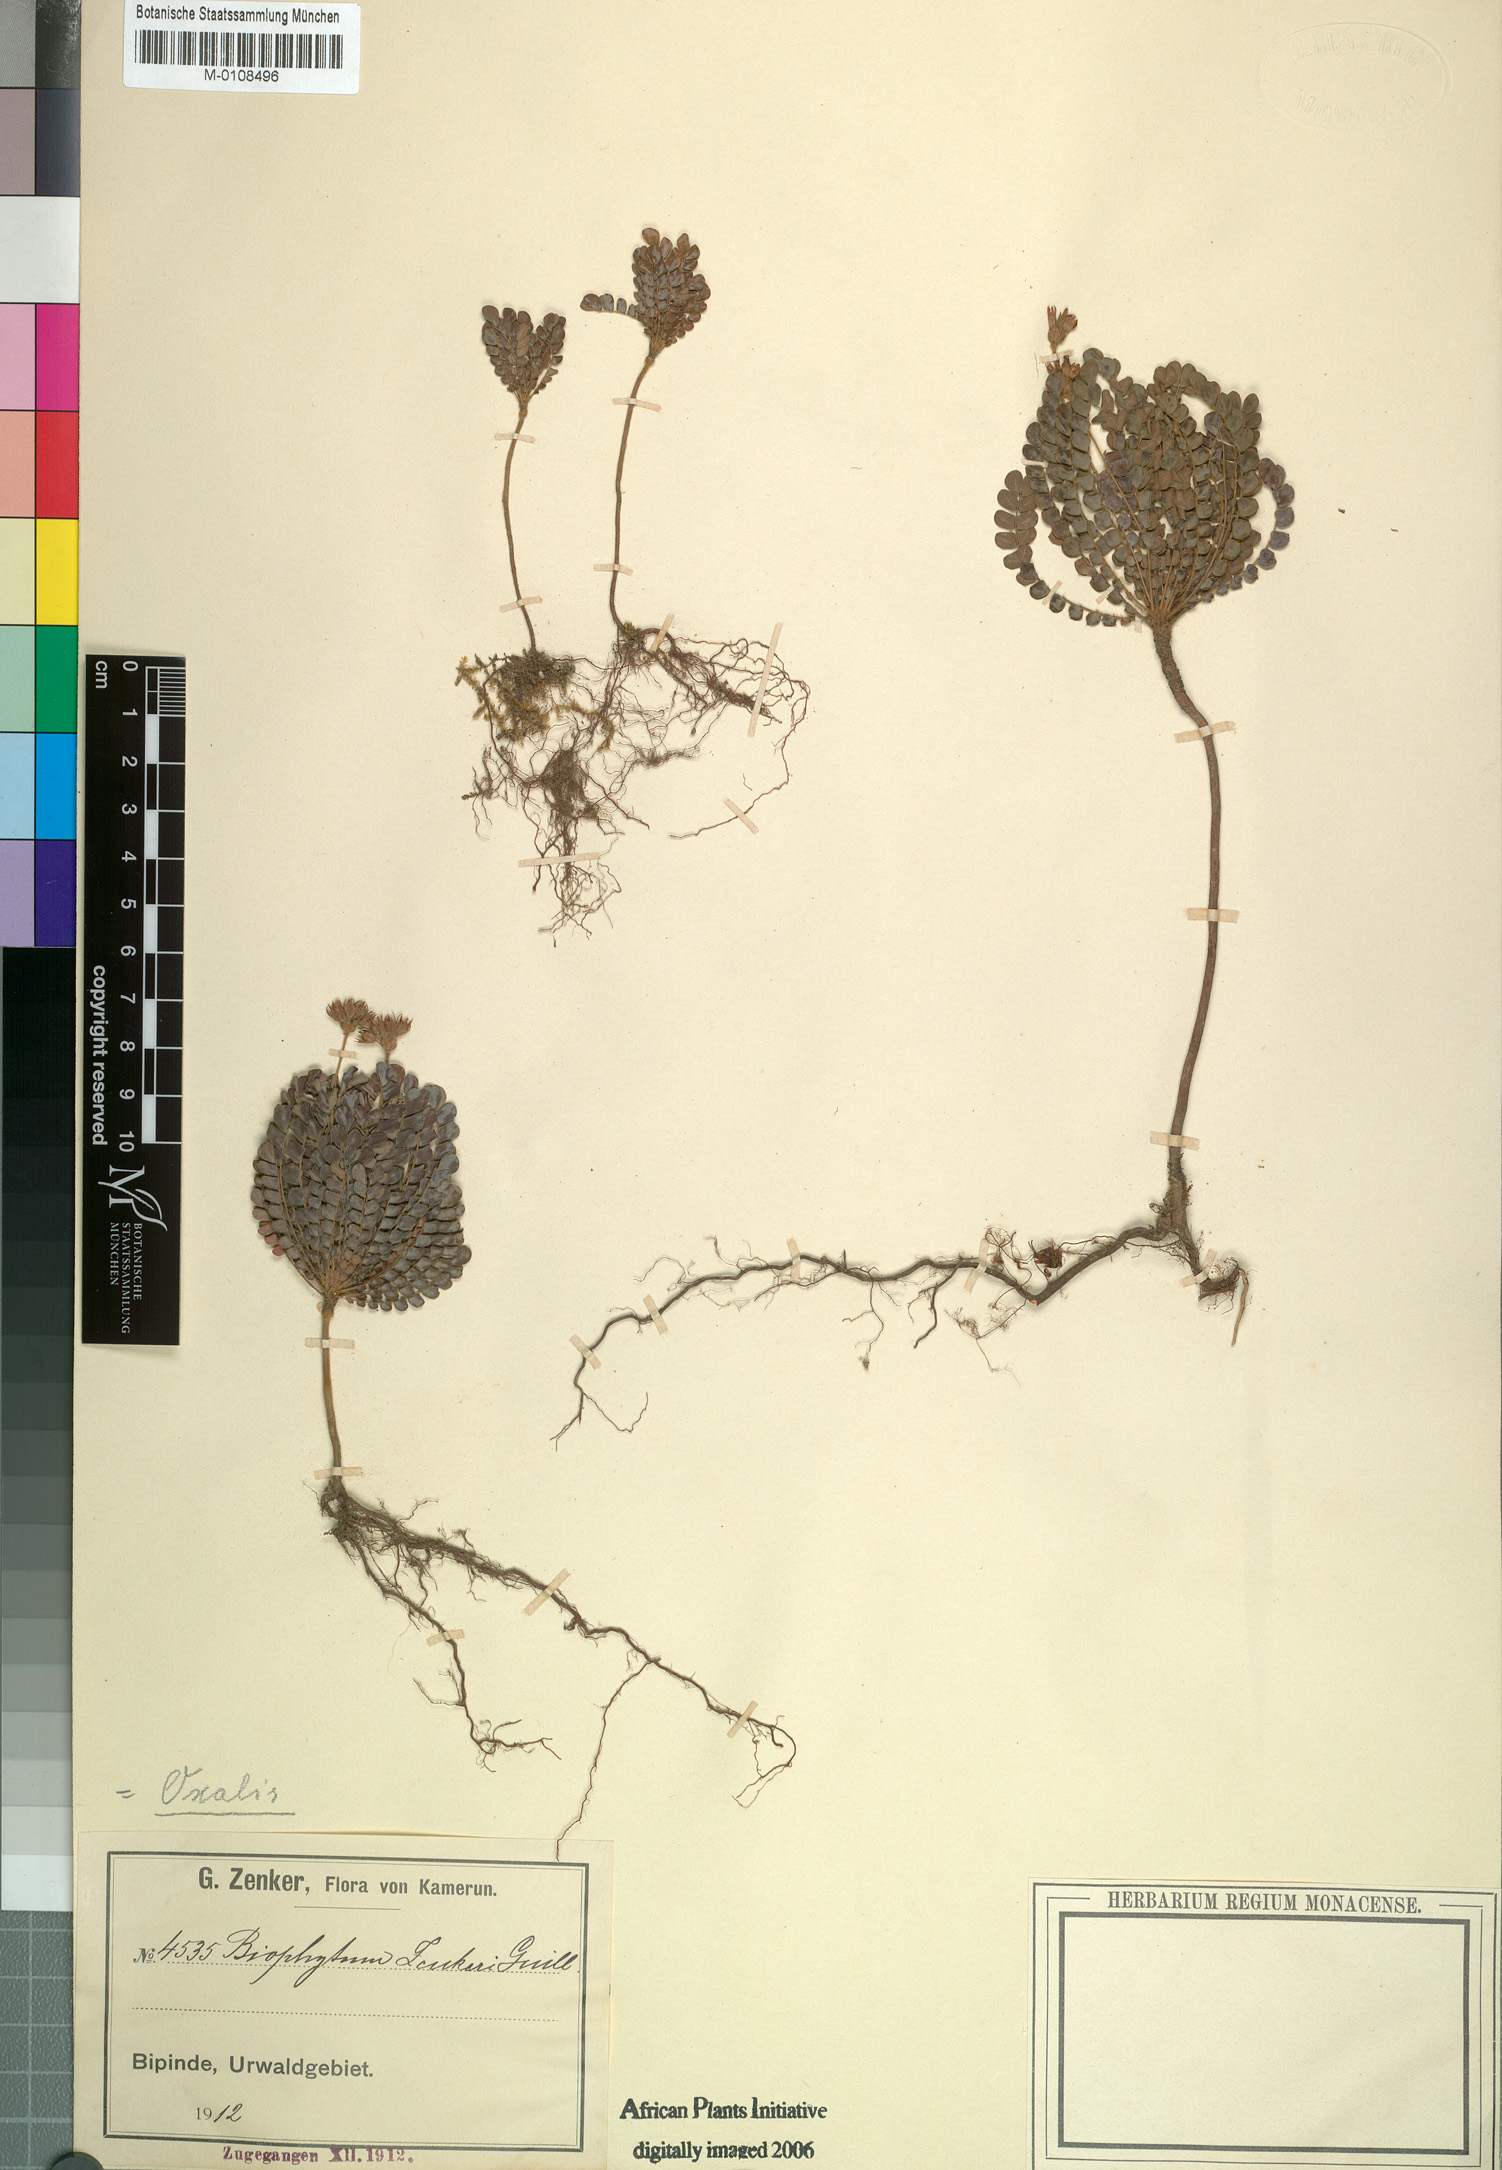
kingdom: Plantae
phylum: Tracheophyta
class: Magnoliopsida
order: Oxalidales
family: Oxalidaceae
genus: Biophytum
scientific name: Biophytum zenkeri
